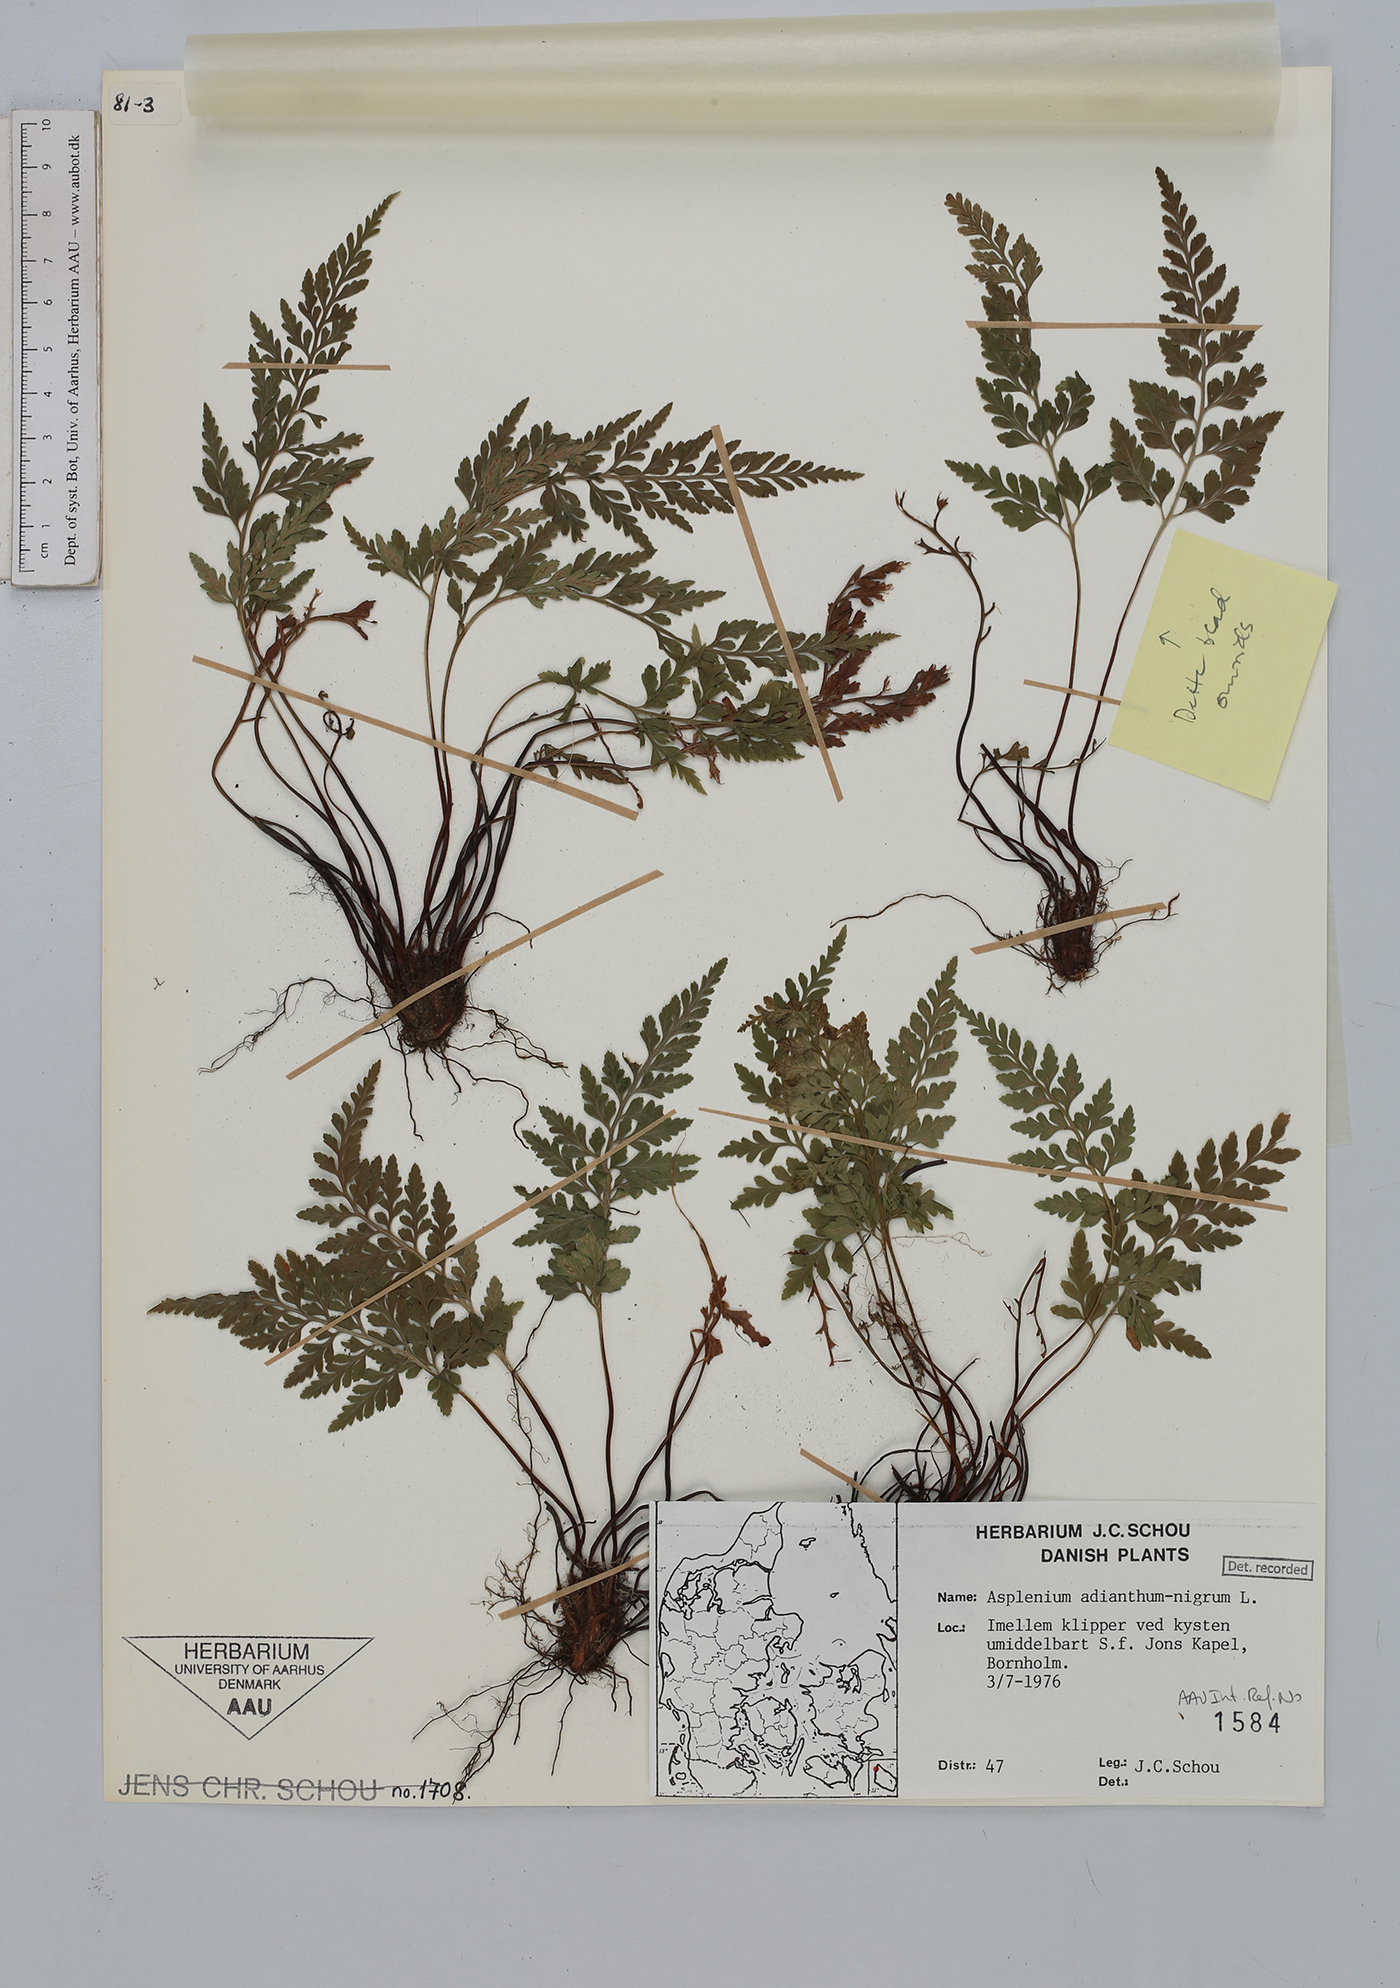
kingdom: Plantae
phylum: Tracheophyta
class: Polypodiopsida
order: Polypodiales
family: Aspleniaceae
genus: Asplenium
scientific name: Asplenium adiantum-nigrum
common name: Black spleenwort
